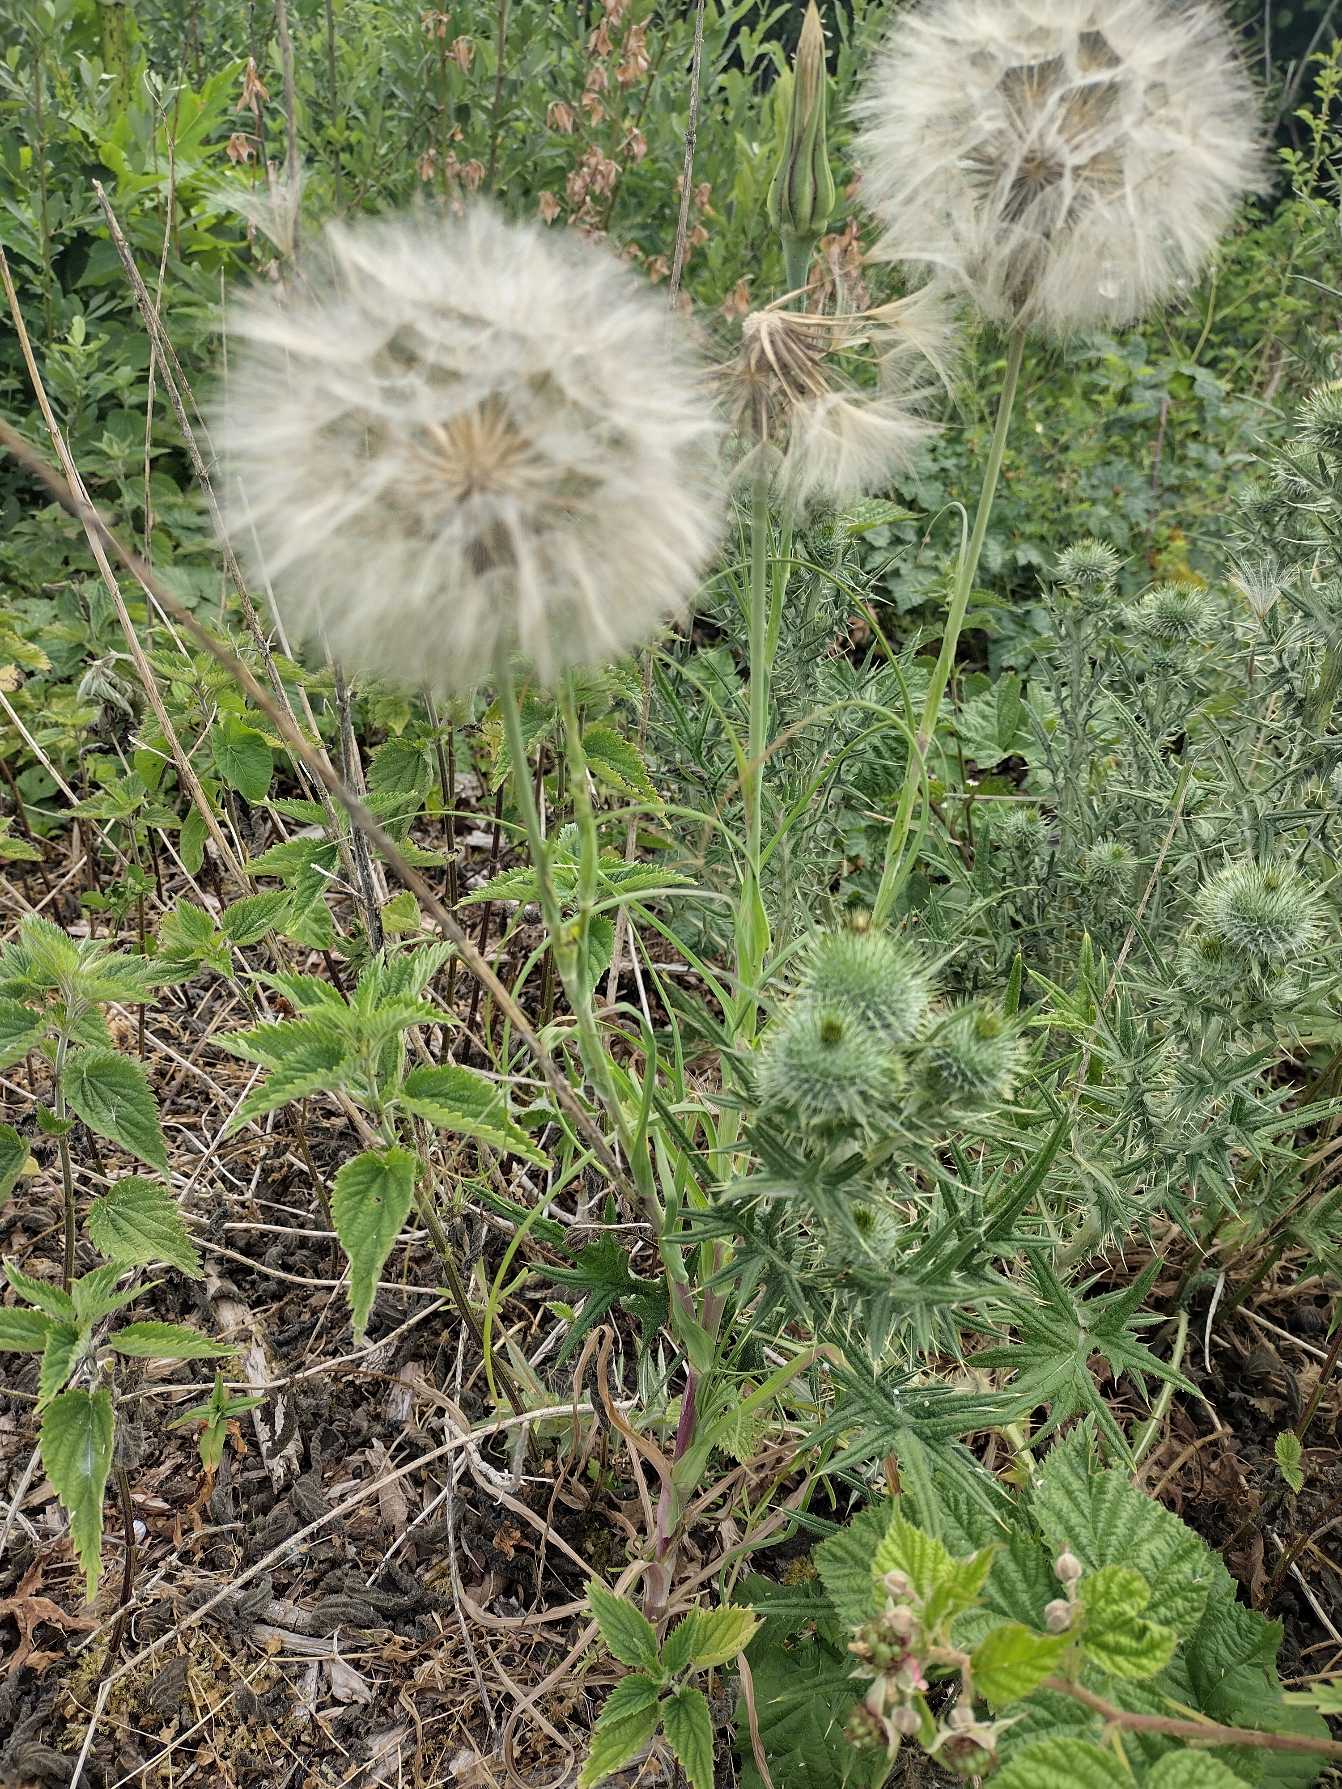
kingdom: Plantae
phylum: Tracheophyta
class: Magnoliopsida
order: Asterales
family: Asteraceae
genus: Tragopogon
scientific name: Tragopogon pratensis
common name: Gedeskæg
